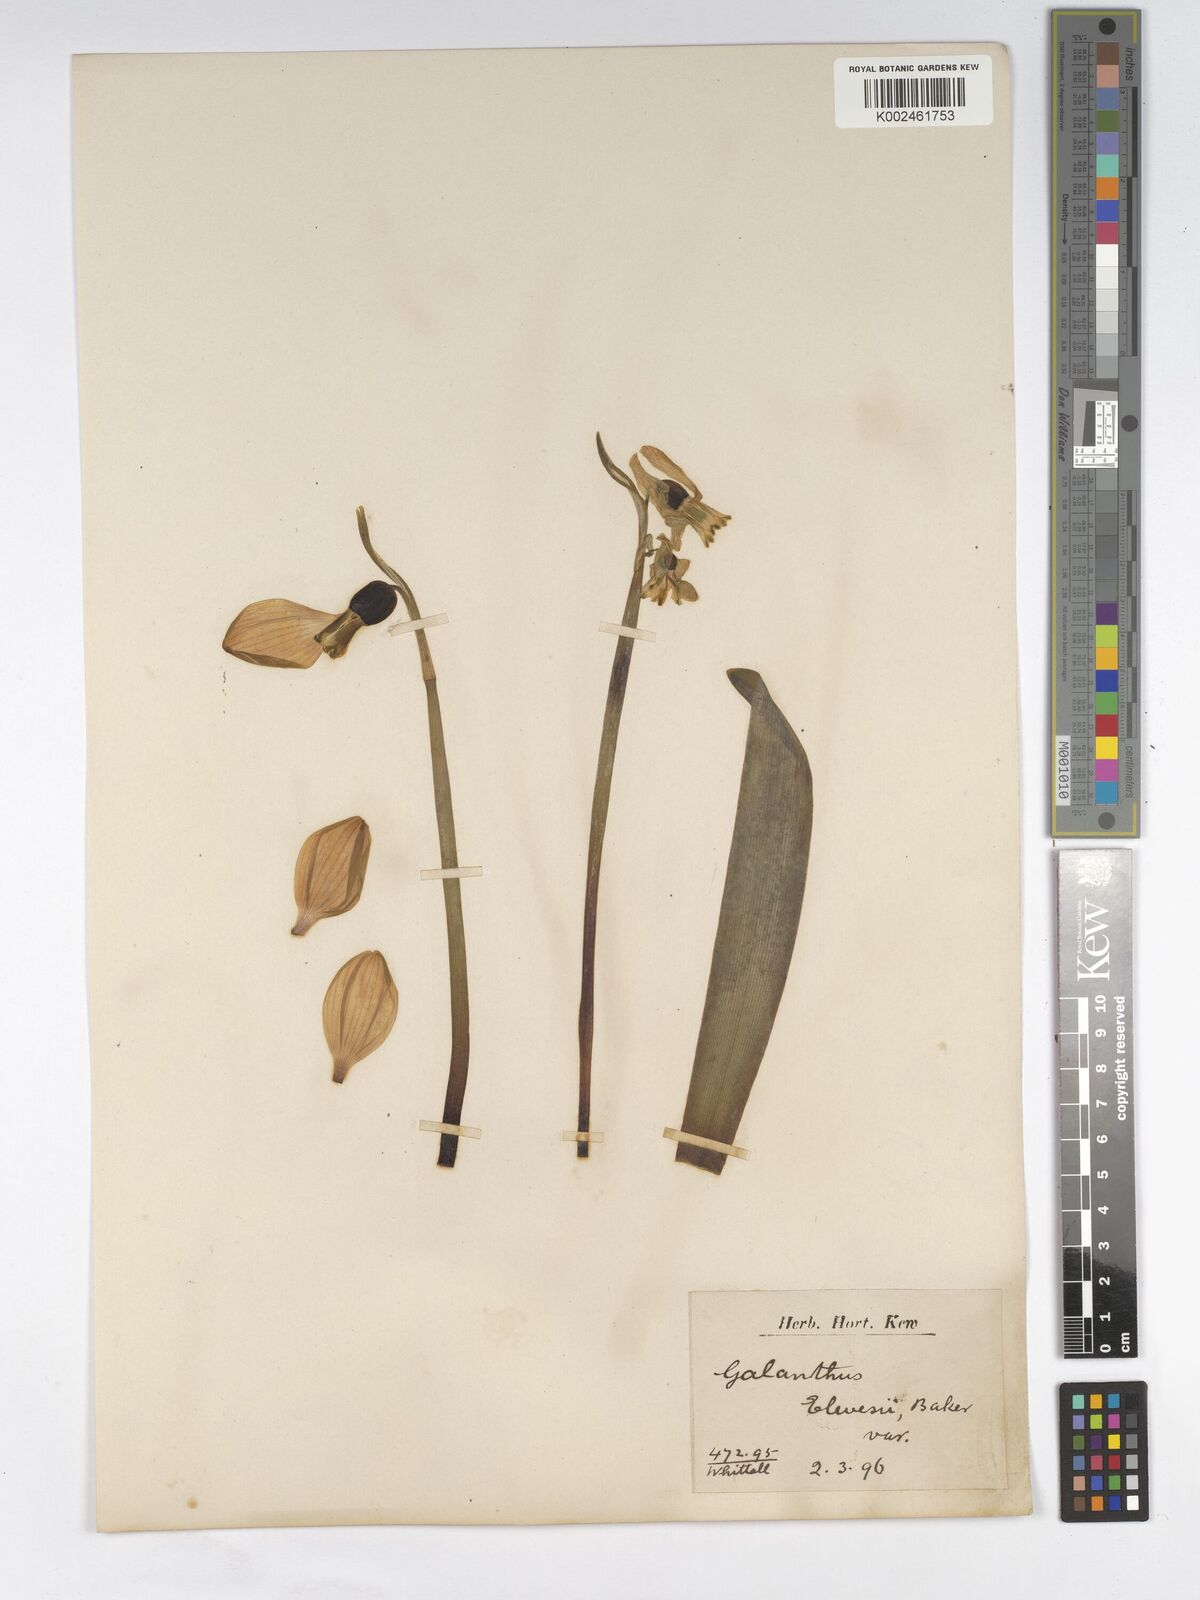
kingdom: Plantae
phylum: Tracheophyta
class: Liliopsida
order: Asparagales
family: Amaryllidaceae
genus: Galanthus
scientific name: Galanthus elwesii
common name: Greater snowdrop
